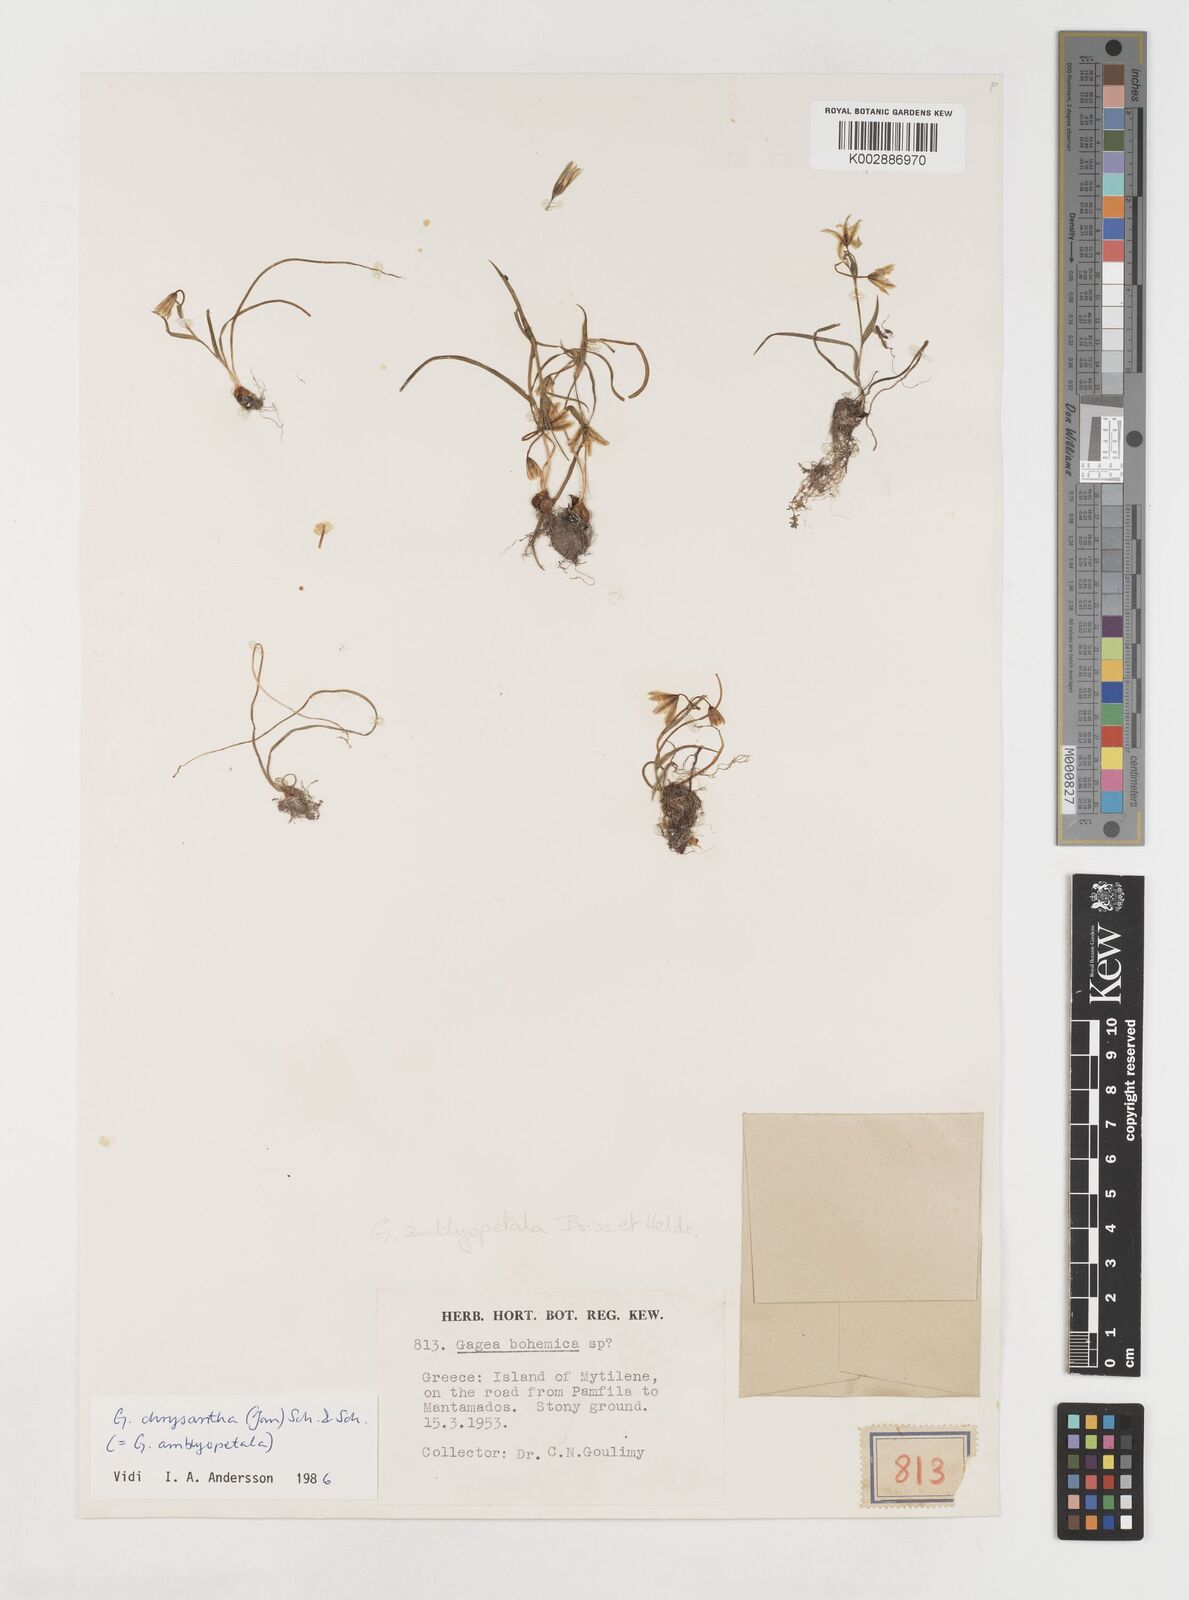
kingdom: Plantae
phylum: Tracheophyta
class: Liliopsida
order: Liliales
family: Liliaceae
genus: Gagea
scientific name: Gagea amblyopetala
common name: Blunt-flowered gagea
